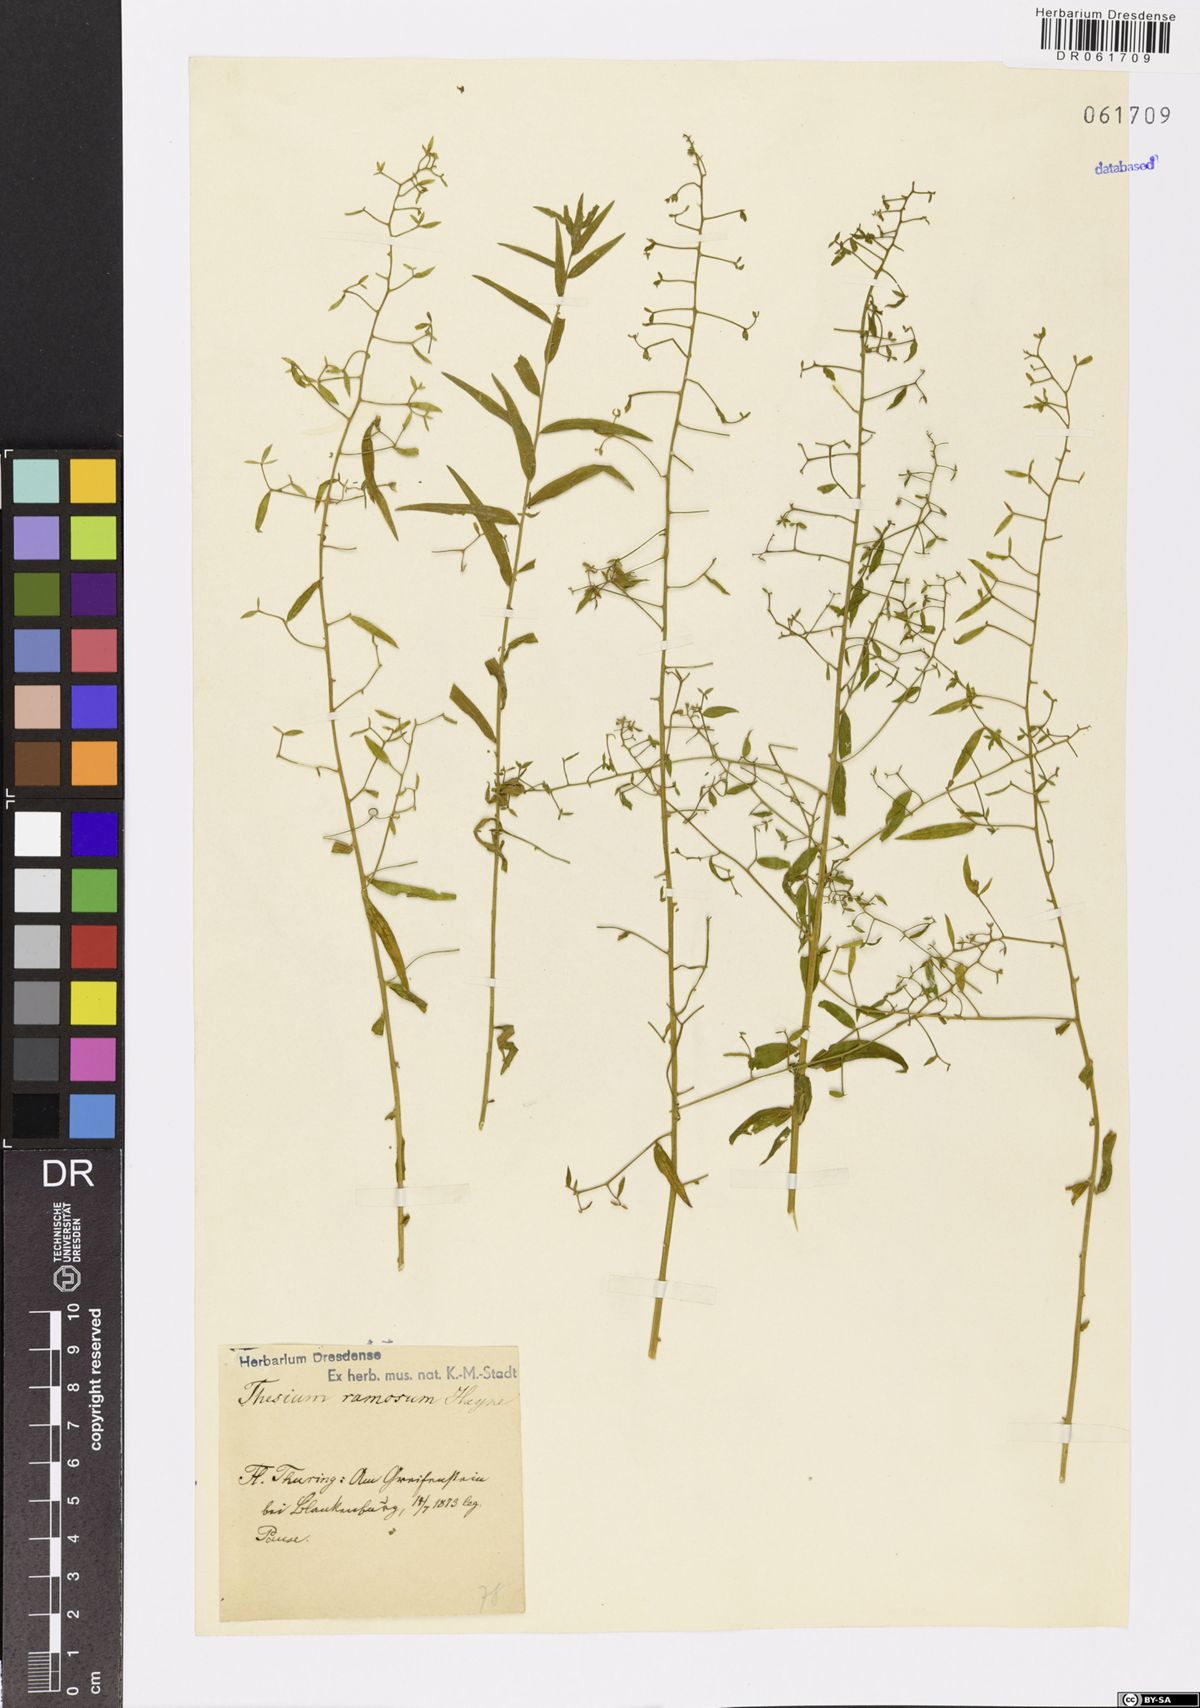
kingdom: Plantae
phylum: Tracheophyta
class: Magnoliopsida
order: Santalales
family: Thesiaceae
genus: Thesium
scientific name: Thesium ramosum
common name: Field thesium
